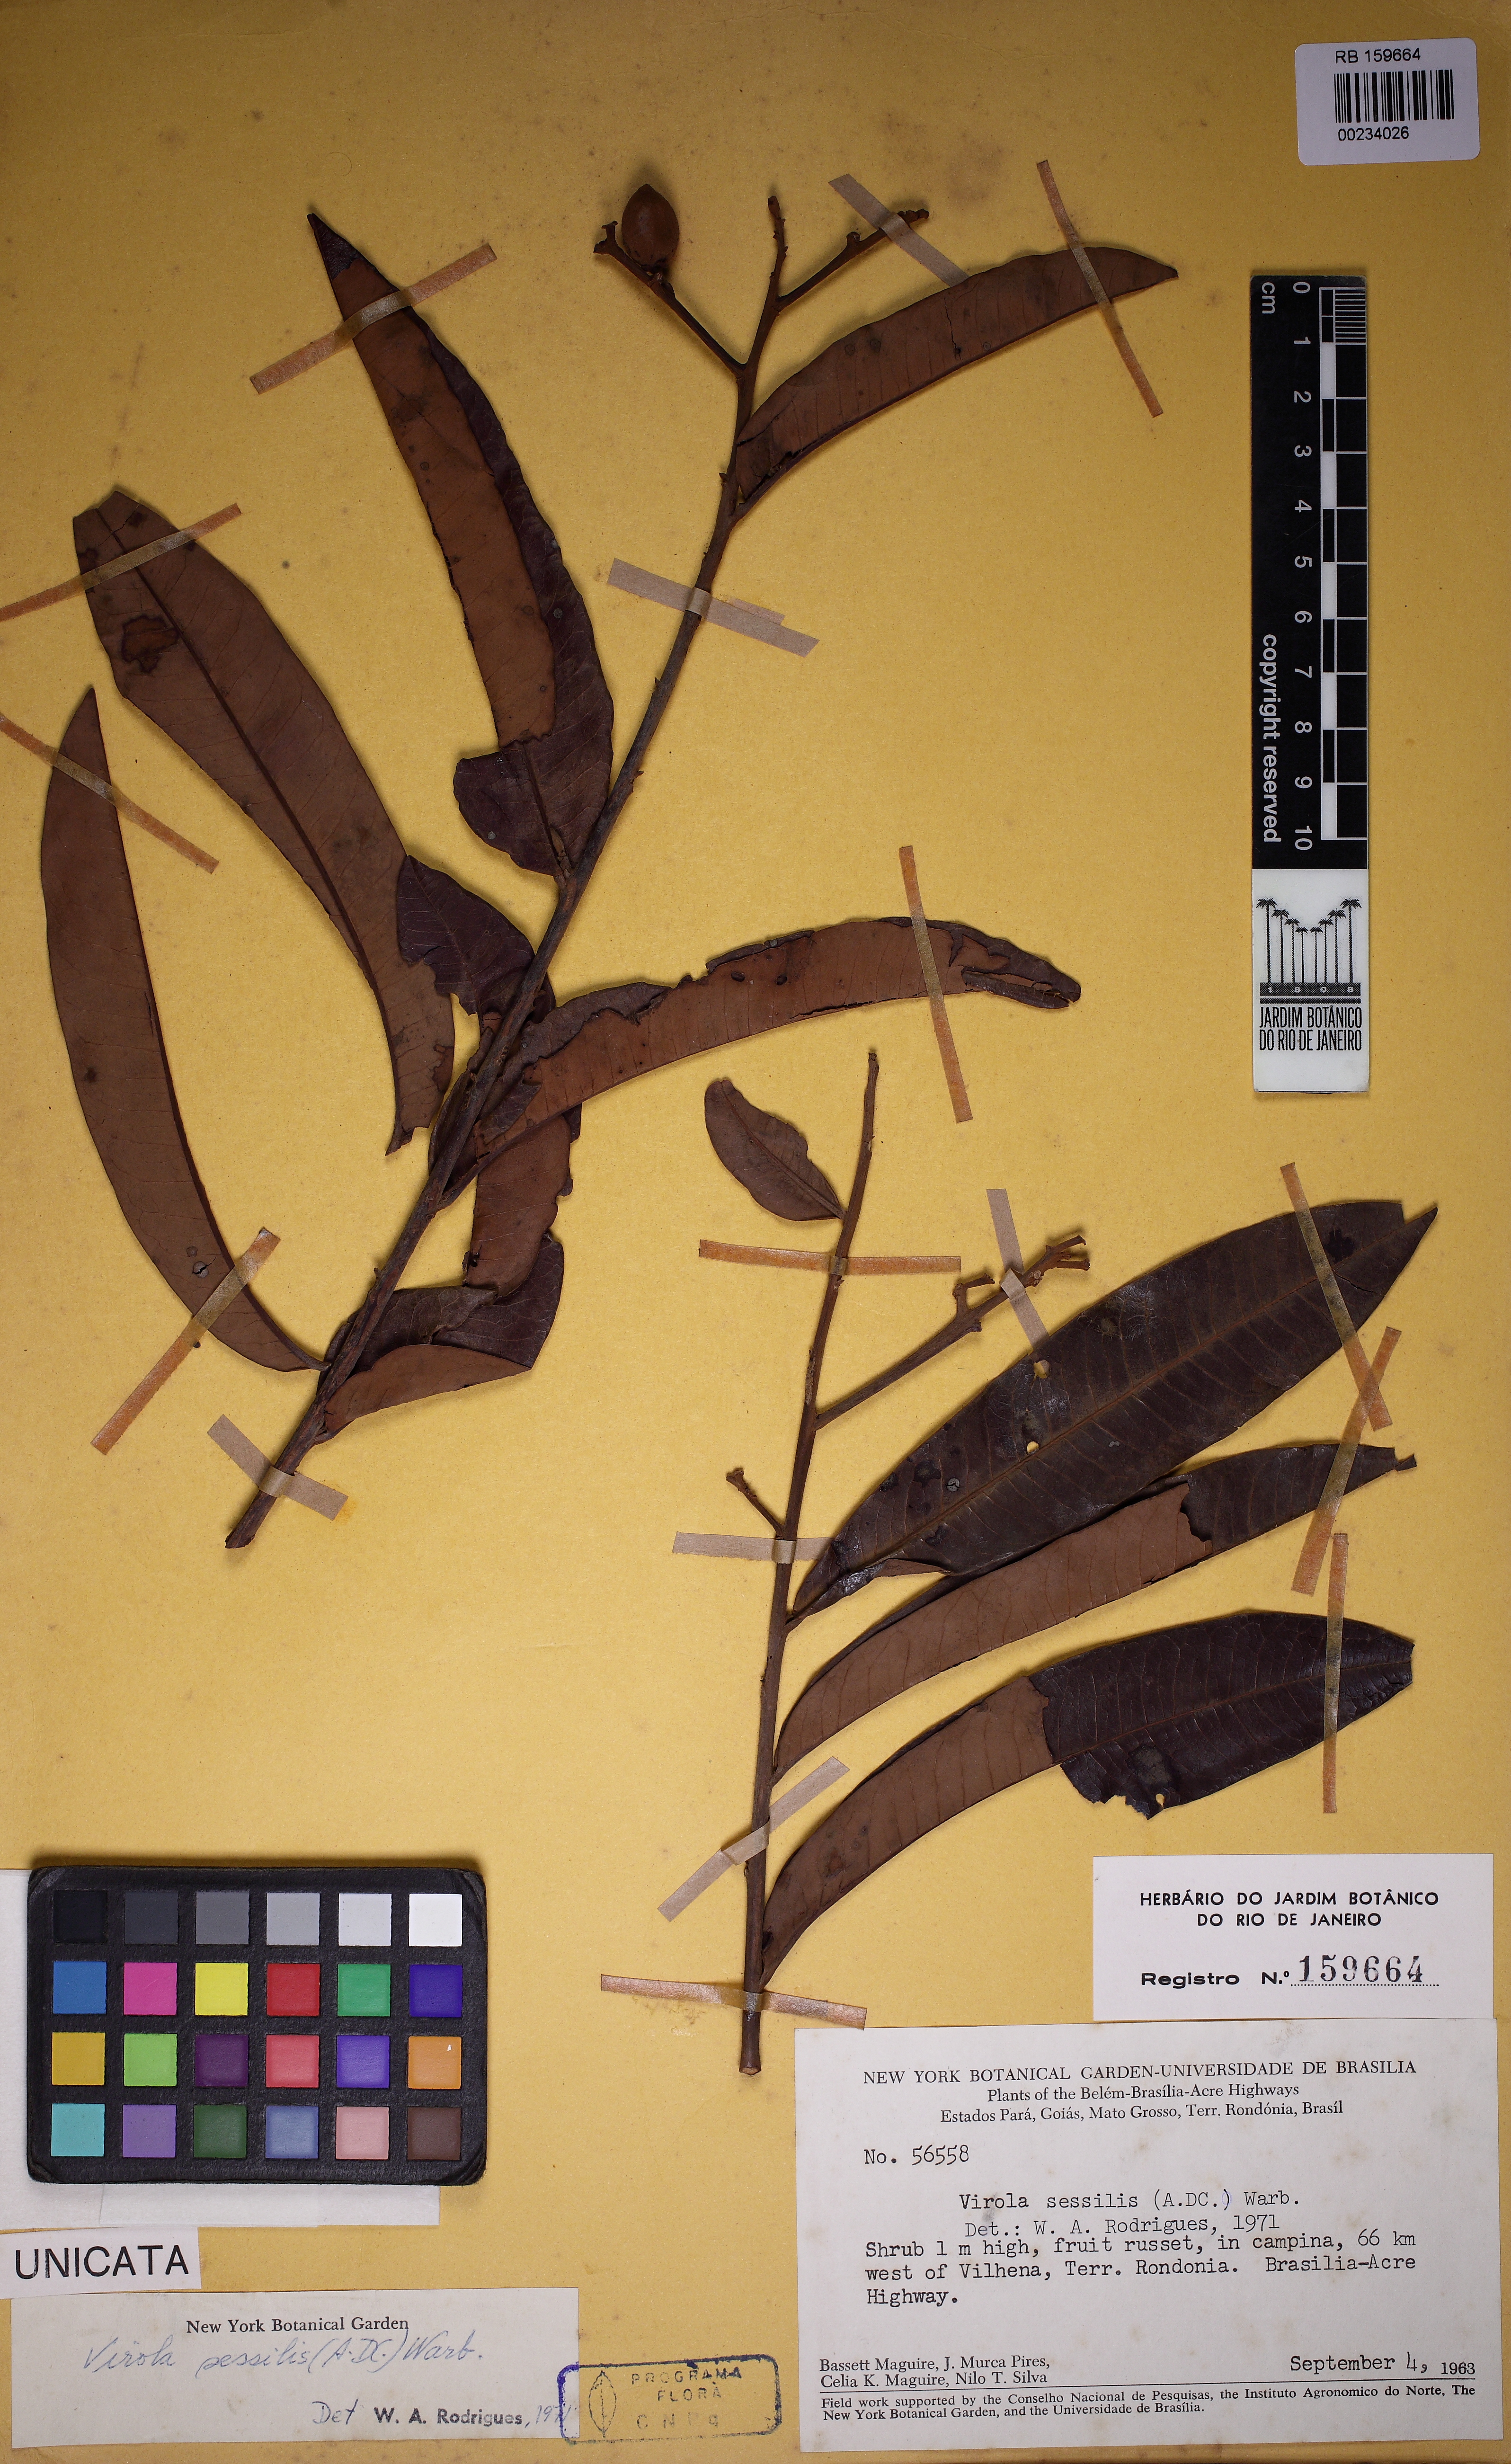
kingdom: Plantae
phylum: Tracheophyta
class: Magnoliopsida
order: Magnoliales
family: Myristicaceae
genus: Virola
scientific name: Virola sessilis
